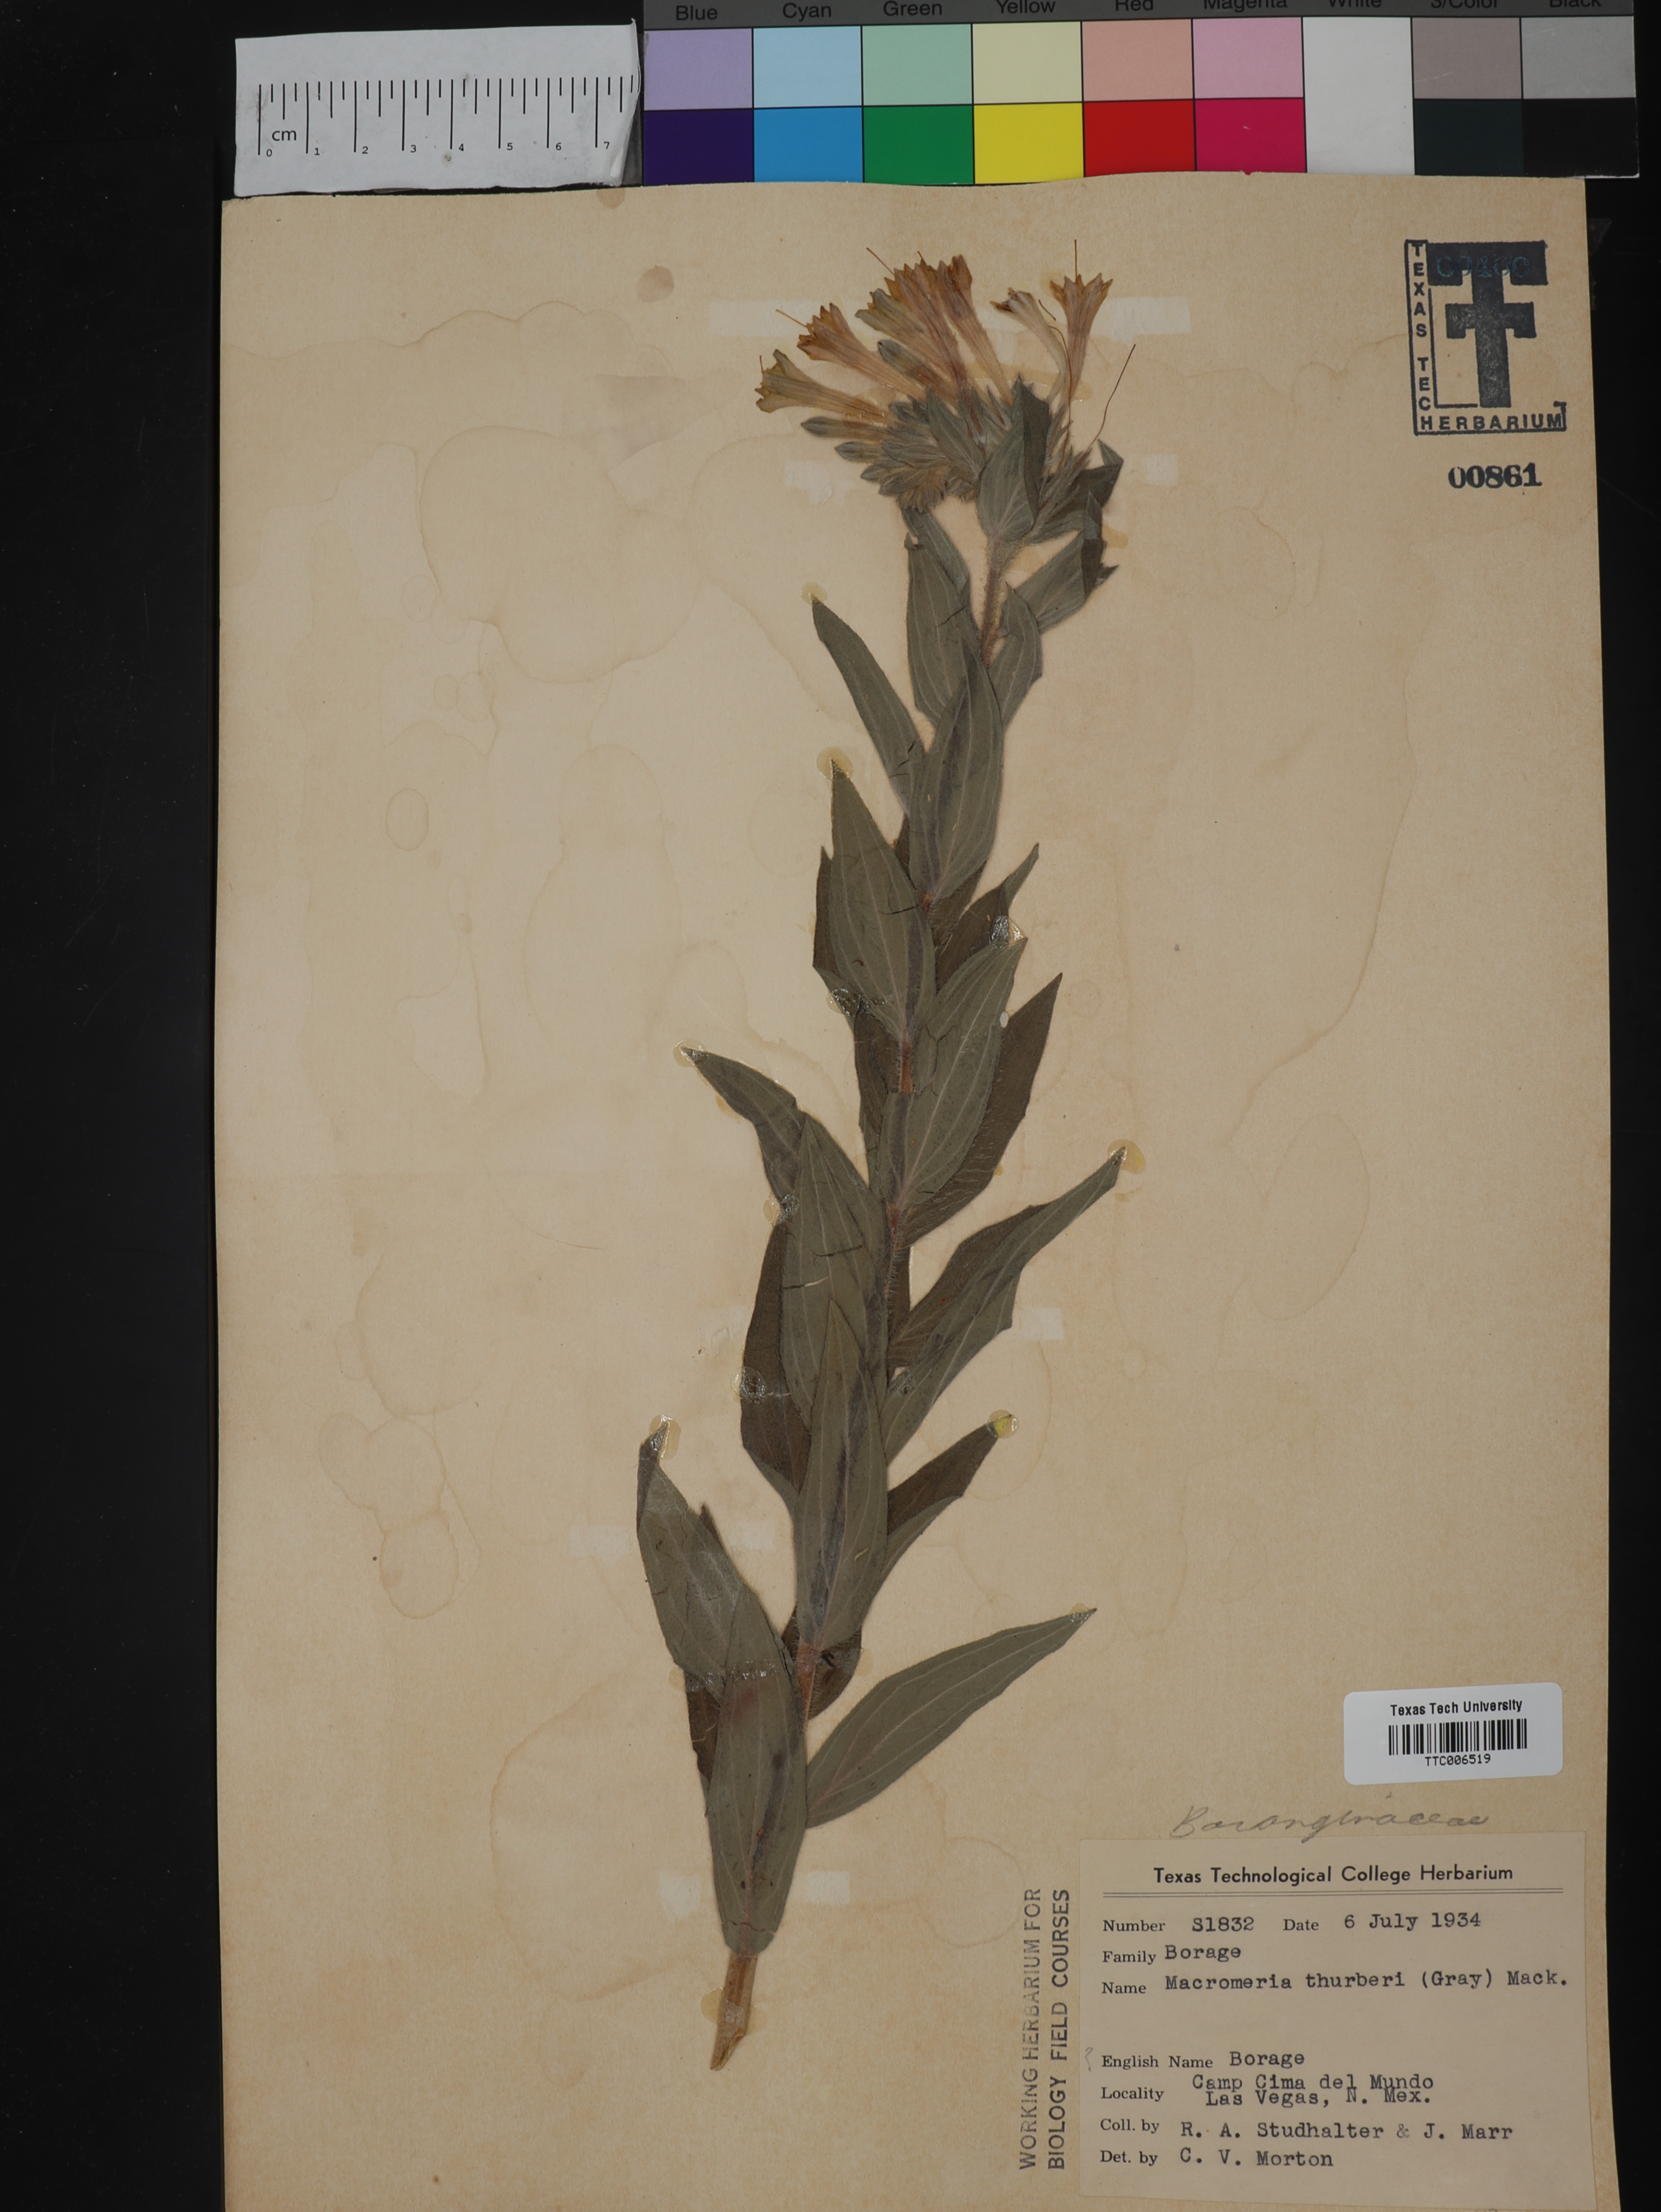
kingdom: Plantae
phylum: Tracheophyta
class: Magnoliopsida
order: Boraginales
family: Boraginaceae
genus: Lithospermum
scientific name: Lithospermum thurberi
